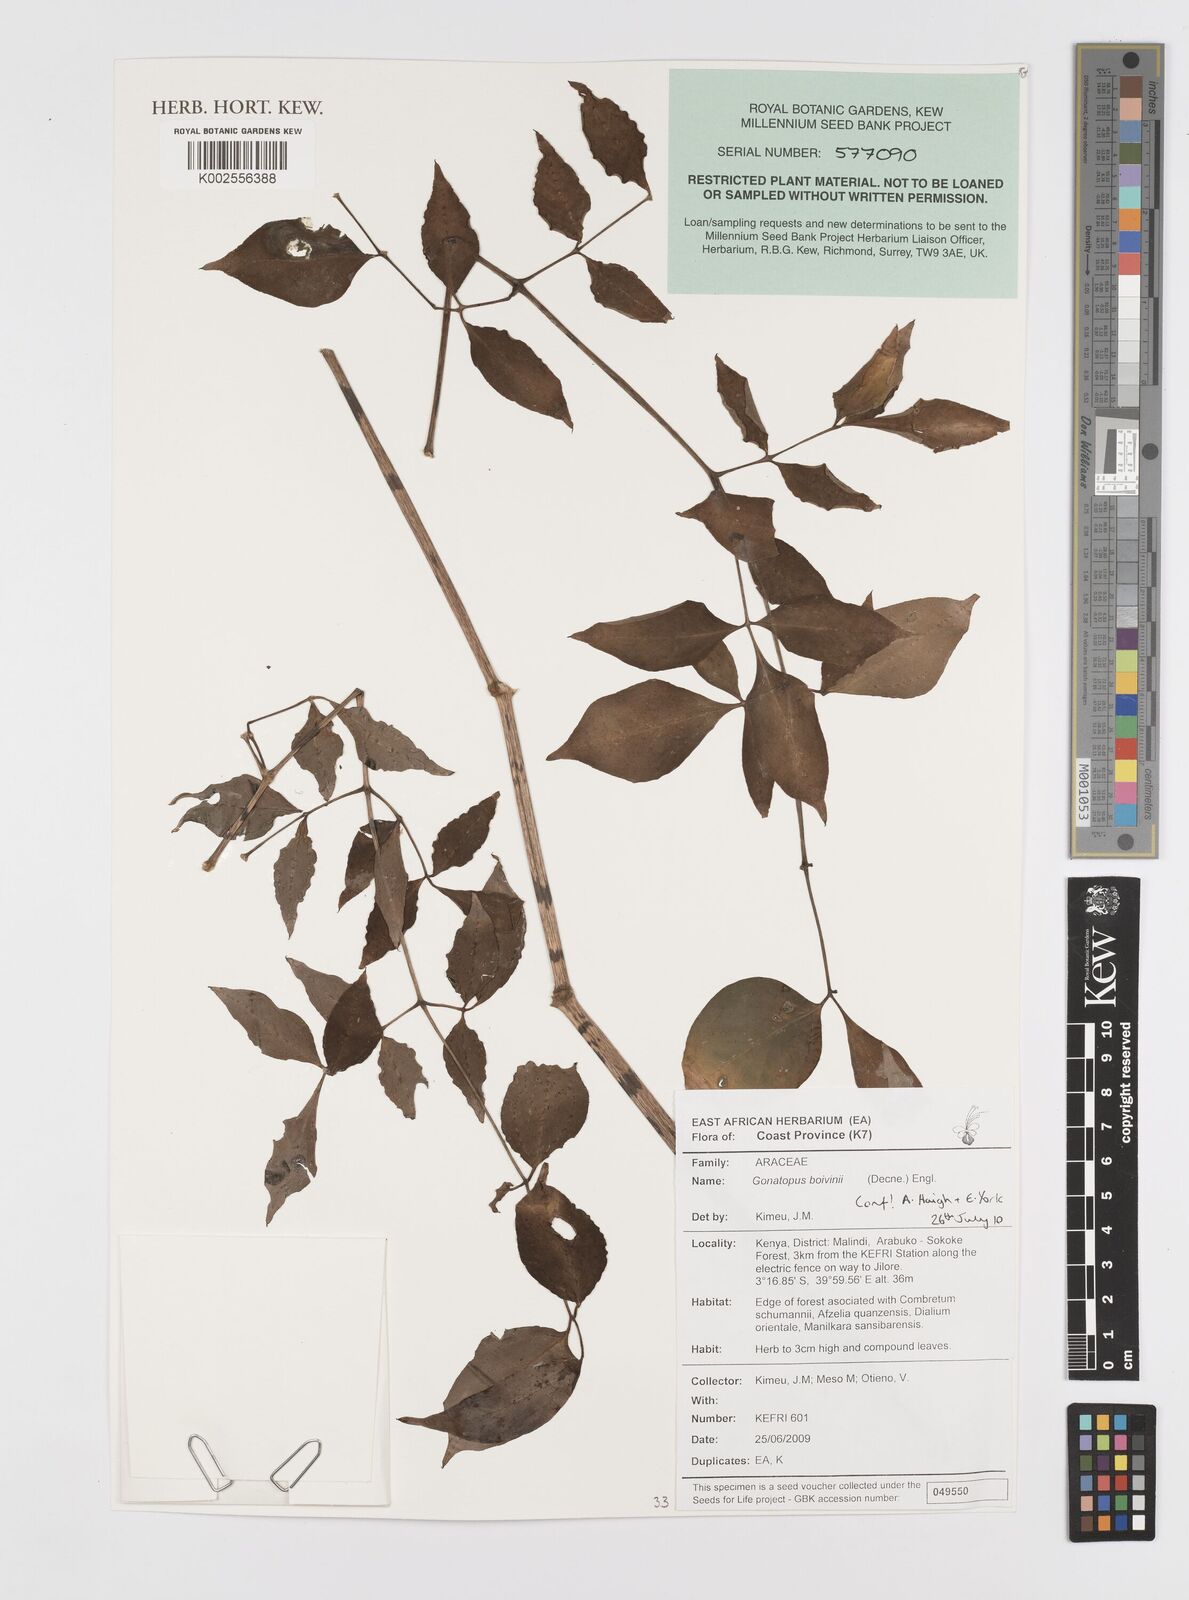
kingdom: Plantae
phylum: Tracheophyta
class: Liliopsida
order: Alismatales
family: Araceae
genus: Gonatopus
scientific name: Gonatopus boivinii
